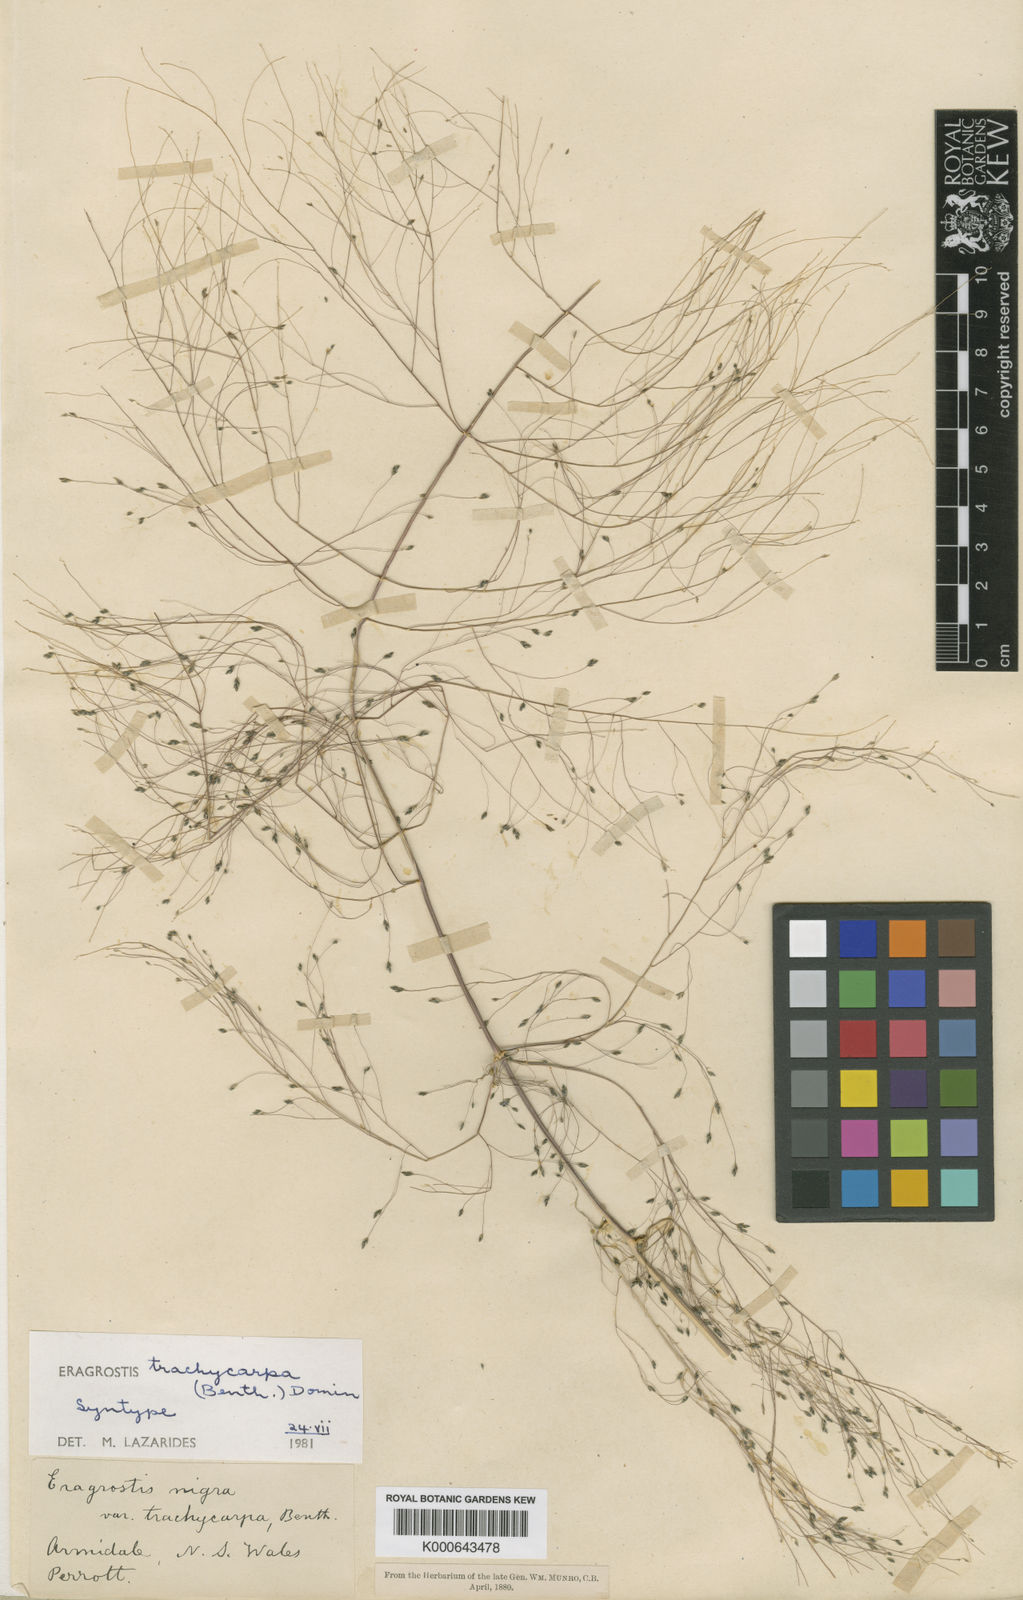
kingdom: Plantae
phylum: Tracheophyta
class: Liliopsida
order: Poales
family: Poaceae
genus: Eragrostis
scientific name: Eragrostis trachycarpa
